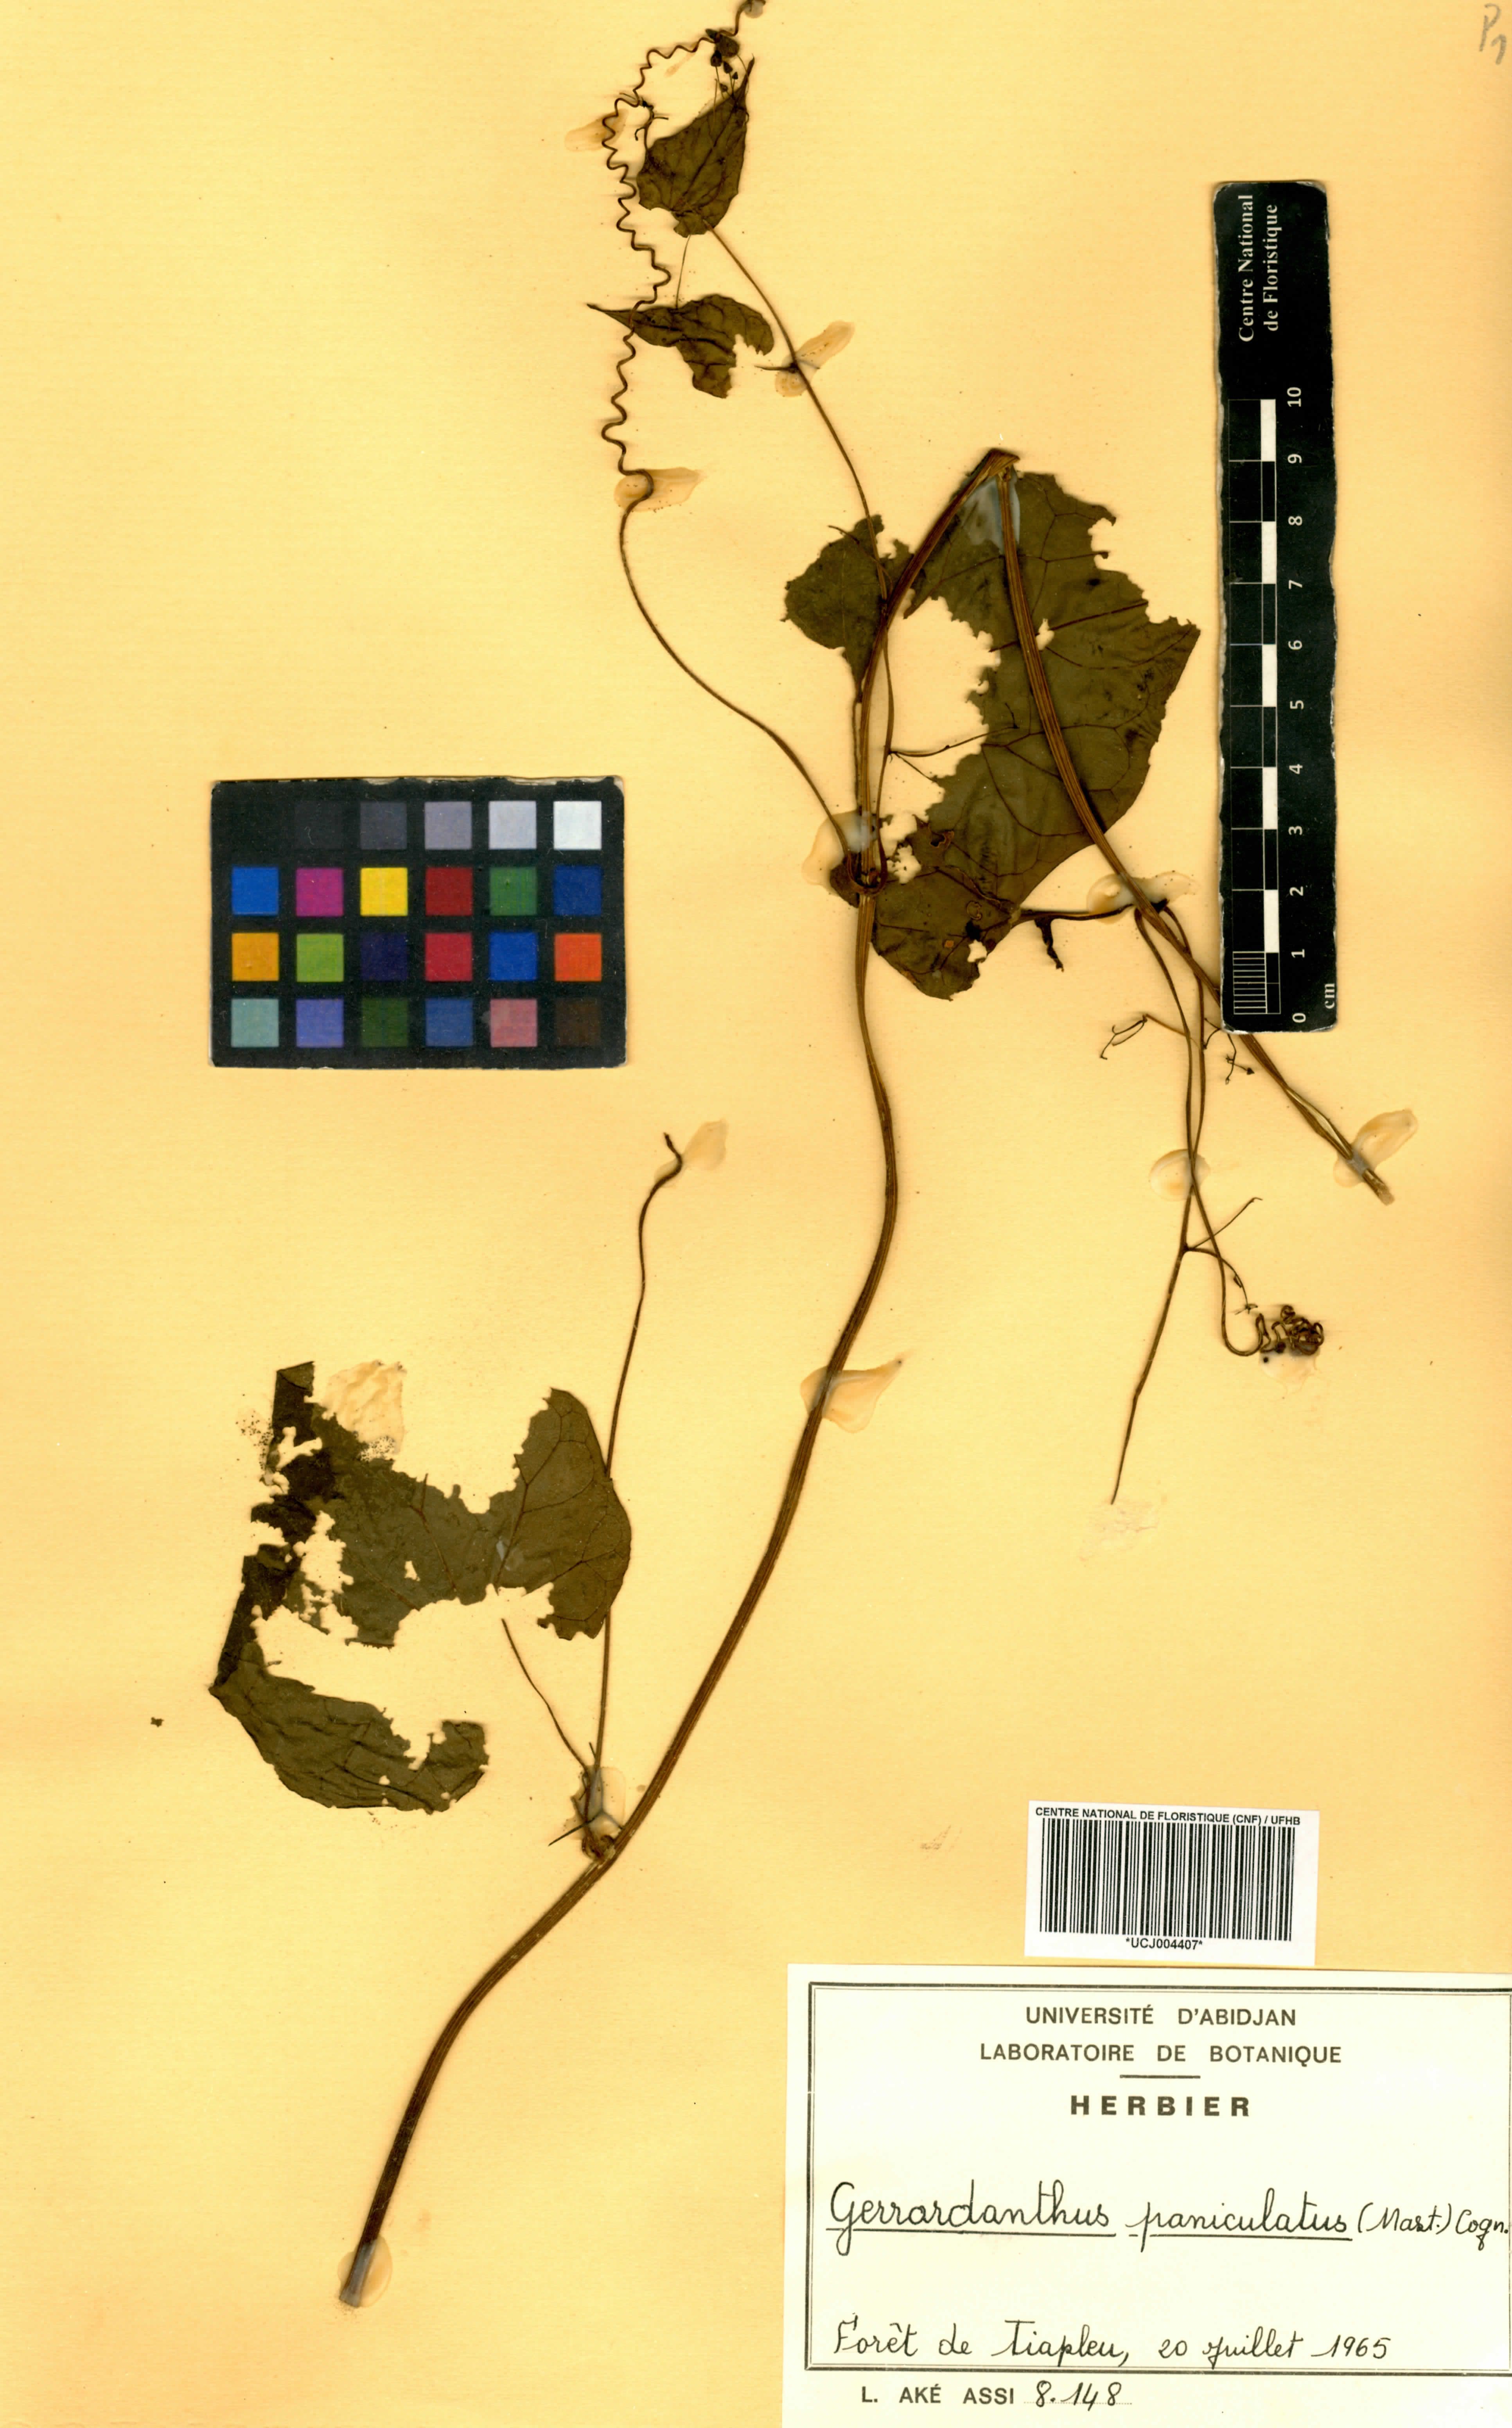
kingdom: Plantae
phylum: Tracheophyta
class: Magnoliopsida
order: Cucurbitales
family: Cucurbitaceae
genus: Gerrardanthus
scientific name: Gerrardanthus paniculatus
